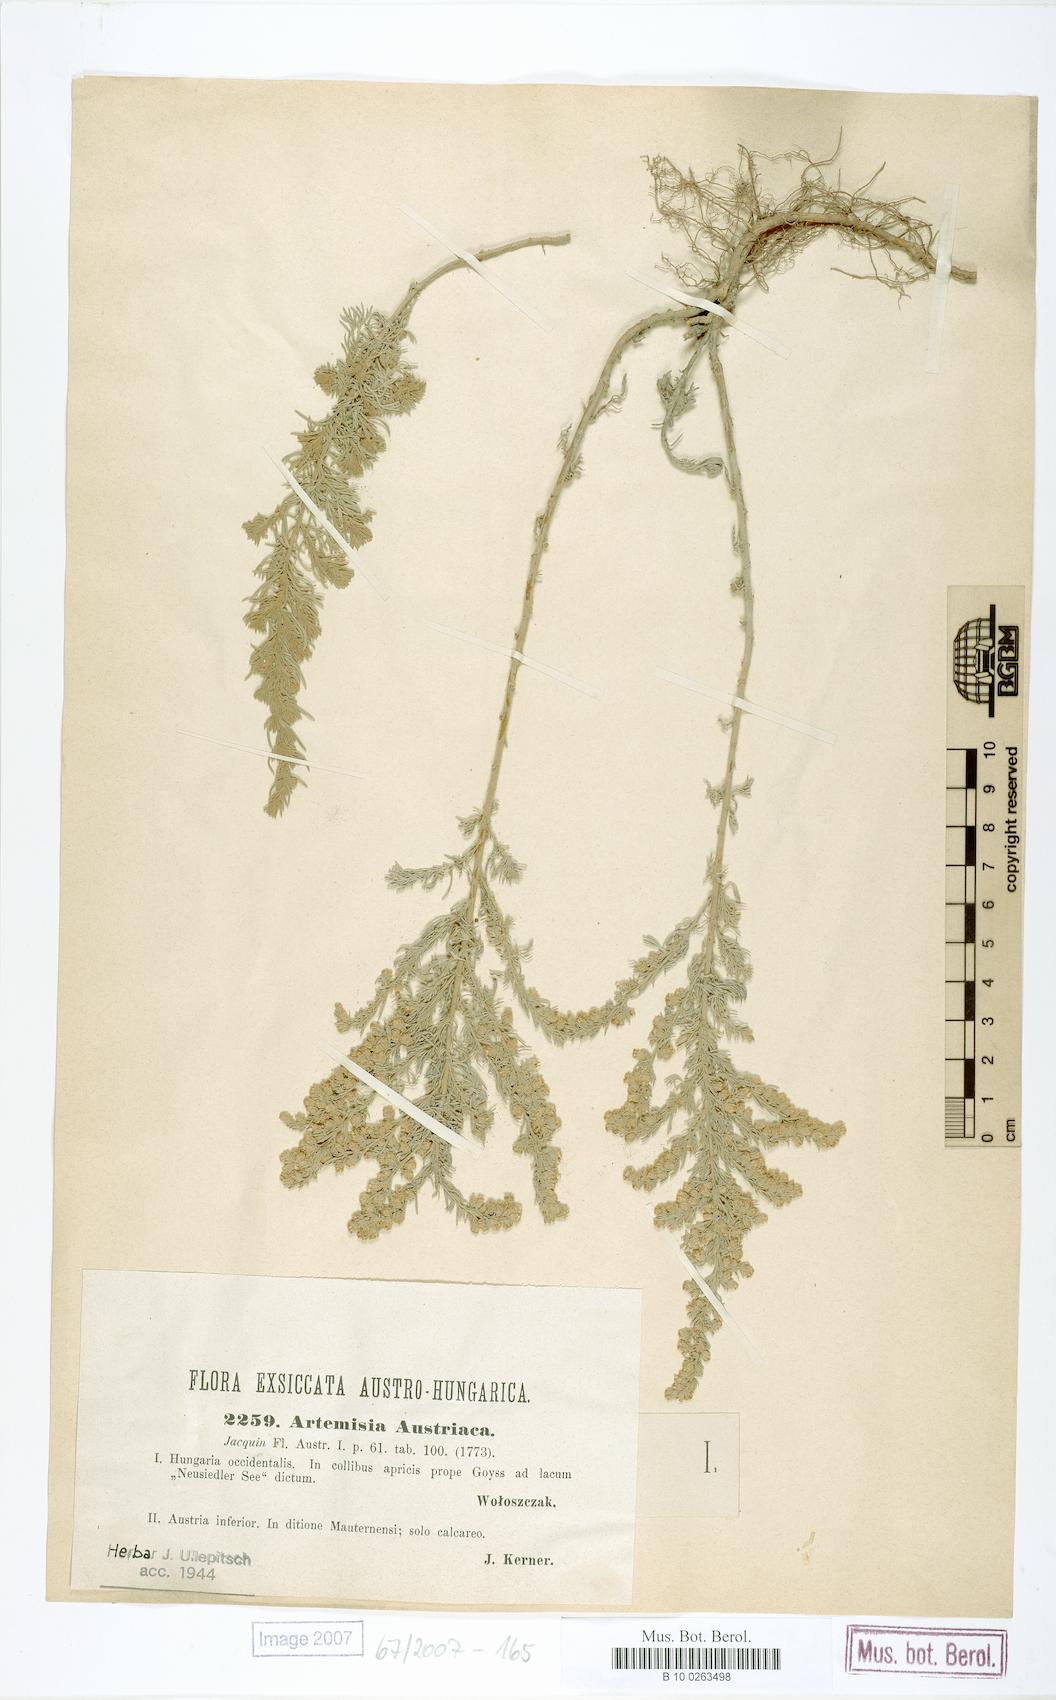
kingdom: Plantae
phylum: Tracheophyta
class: Magnoliopsida
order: Asterales
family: Asteraceae
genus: Artemisia
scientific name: Artemisia austriaca
